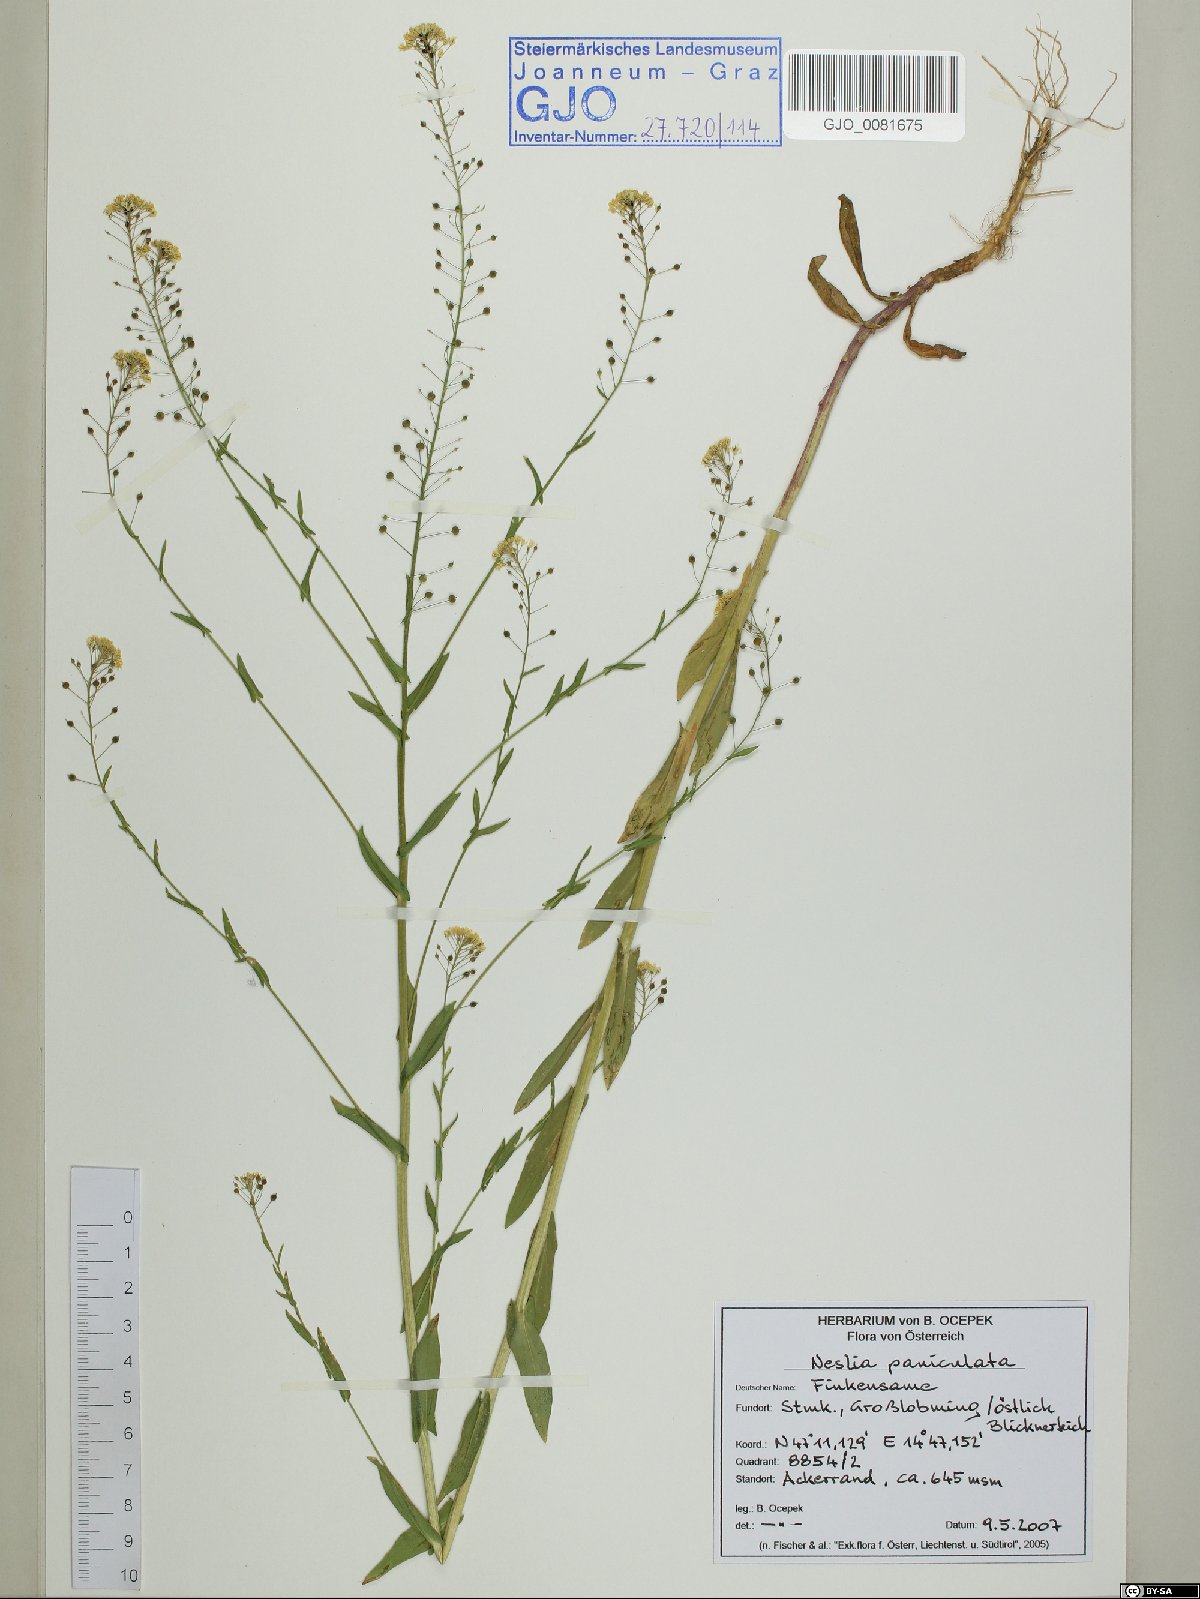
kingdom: Plantae
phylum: Tracheophyta
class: Magnoliopsida
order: Brassicales
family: Brassicaceae
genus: Neslia
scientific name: Neslia paniculata
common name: Ball mustard
